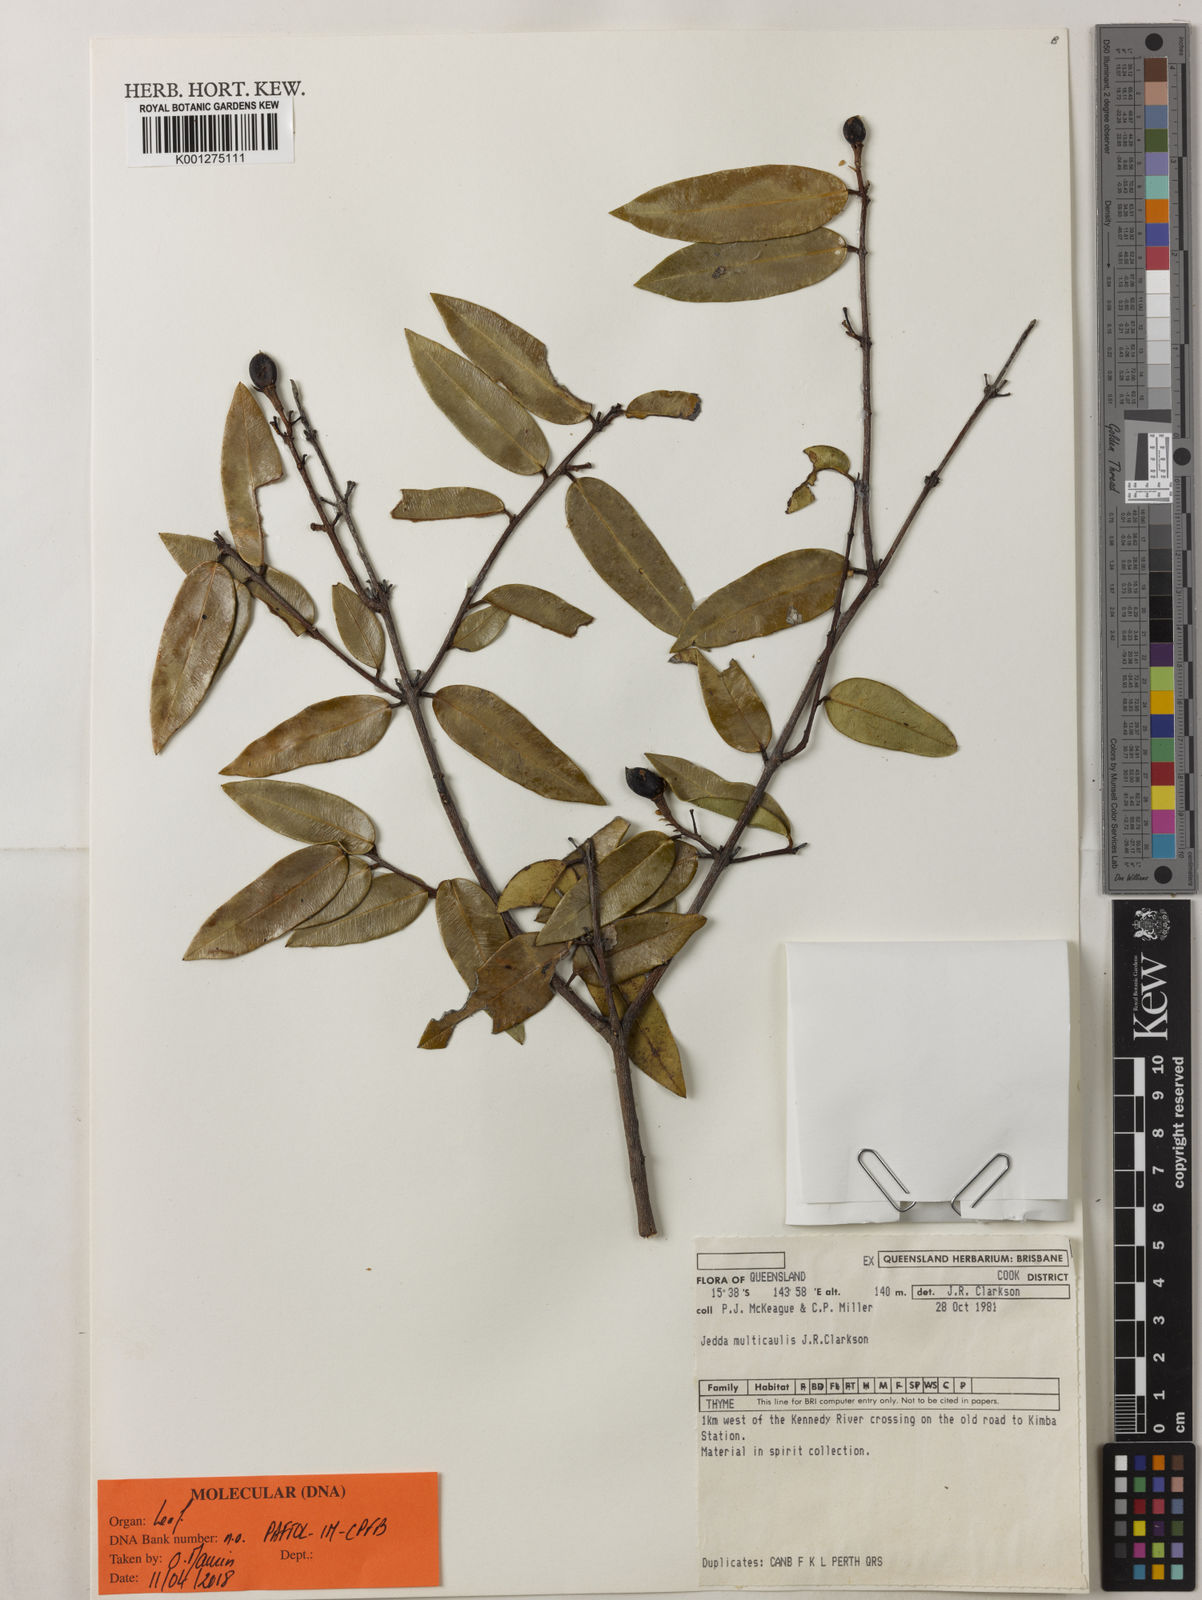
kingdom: Plantae
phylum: Tracheophyta
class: Magnoliopsida
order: Malvales
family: Thymelaeaceae
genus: Jedda
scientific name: Jedda multicaulis
